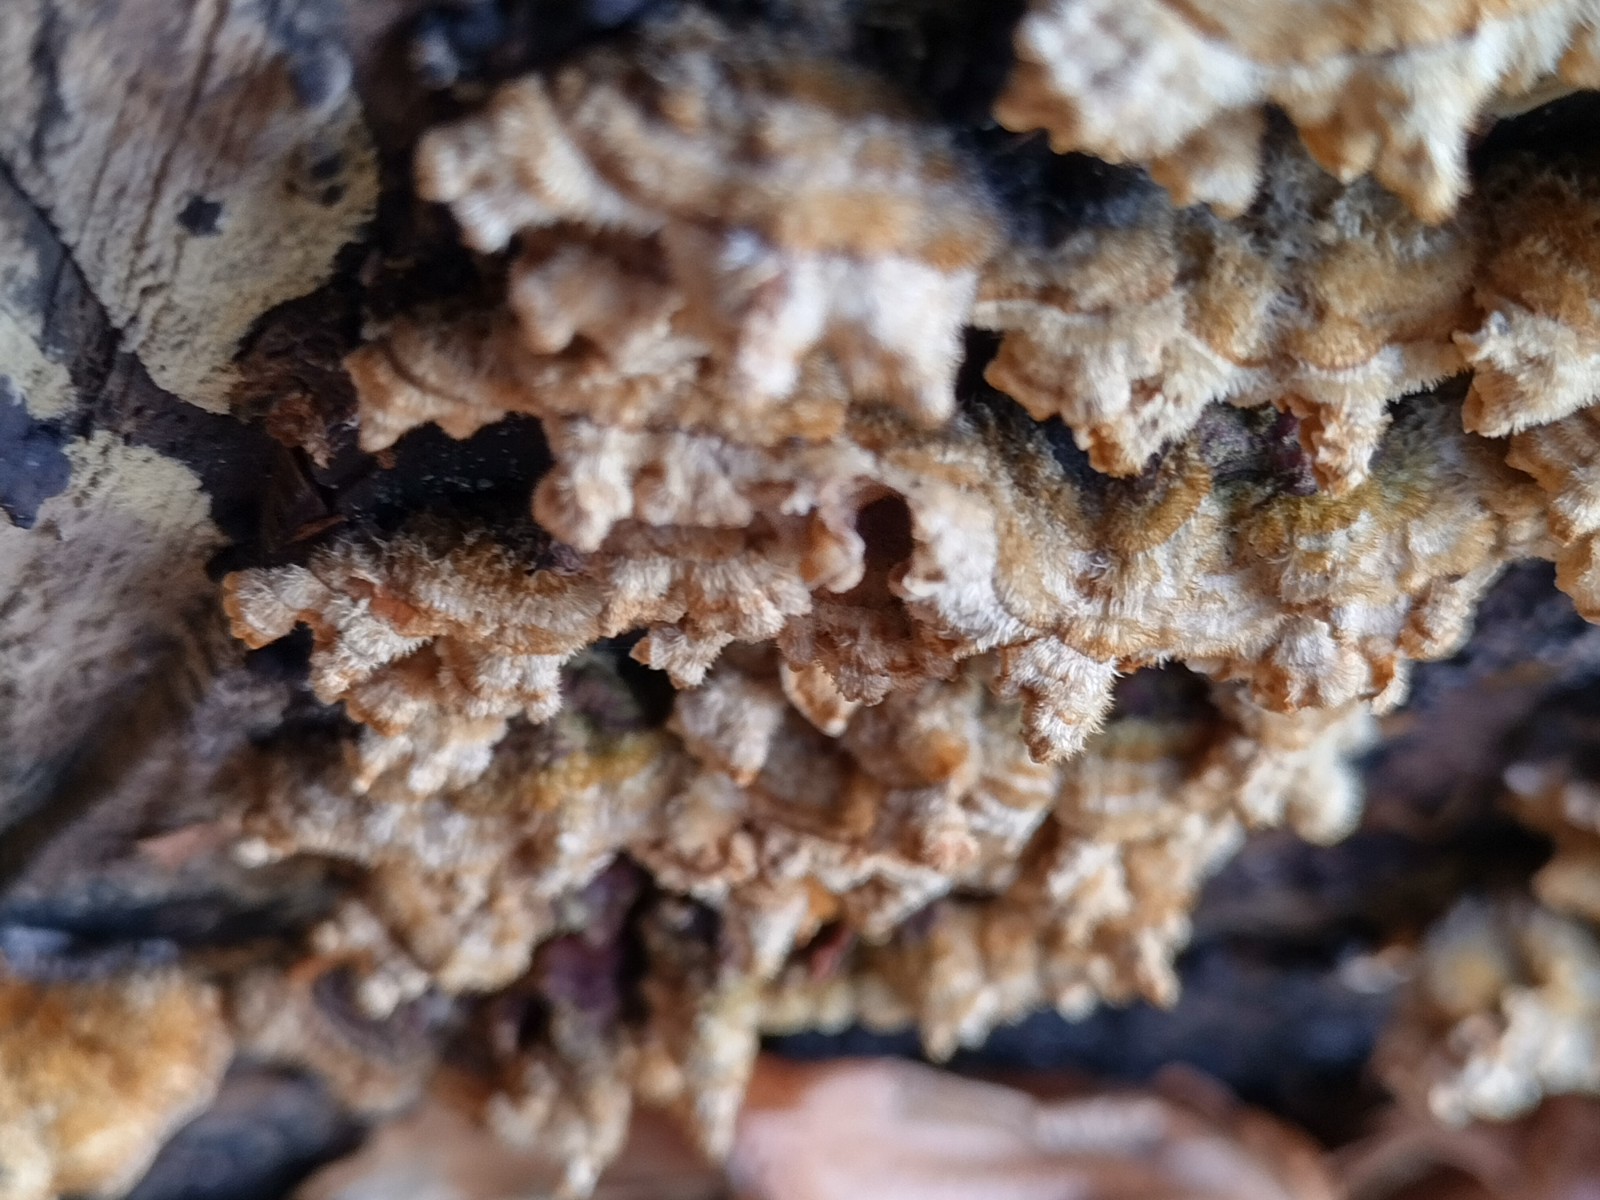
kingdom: Fungi
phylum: Basidiomycota
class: Agaricomycetes
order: Russulales
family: Stereaceae
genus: Stereum
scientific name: Stereum hirsutum
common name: håret lædersvamp
